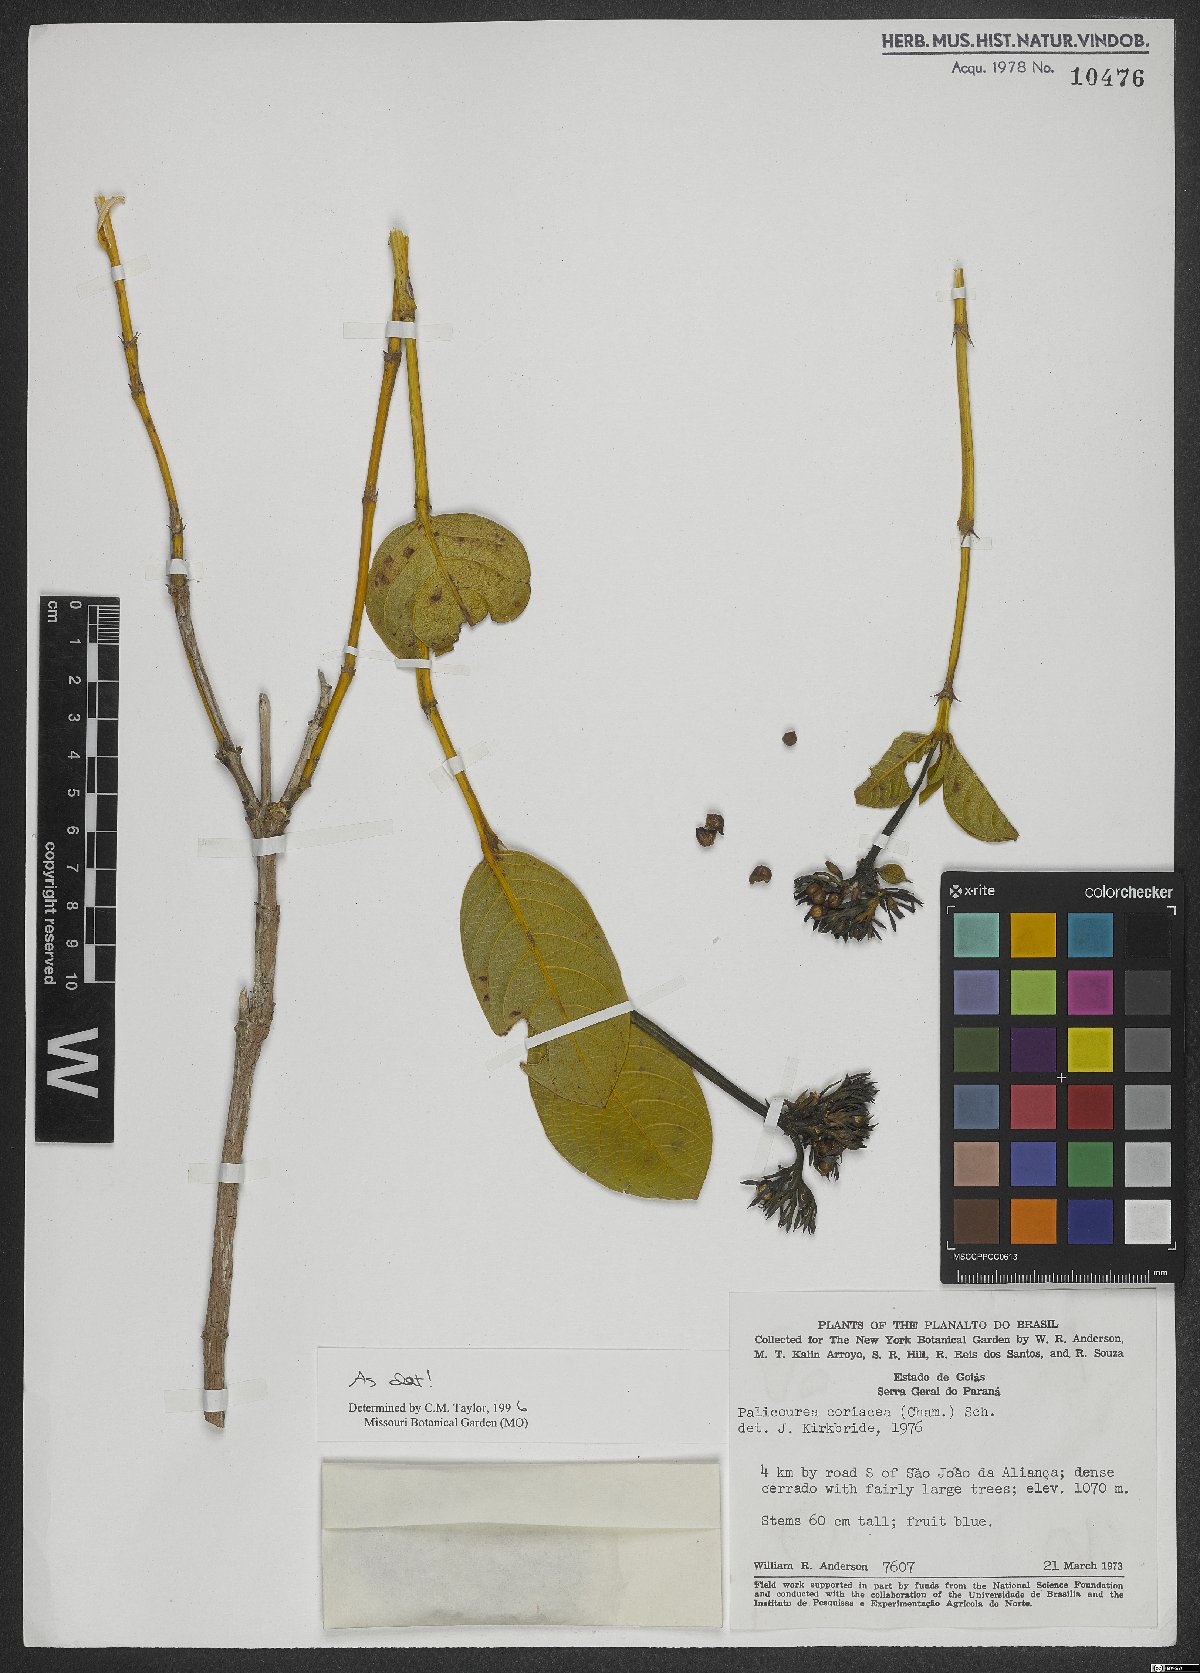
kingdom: Plantae
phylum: Tracheophyta
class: Magnoliopsida
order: Gentianales
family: Rubiaceae
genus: Palicourea
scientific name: Palicourea coriacea
